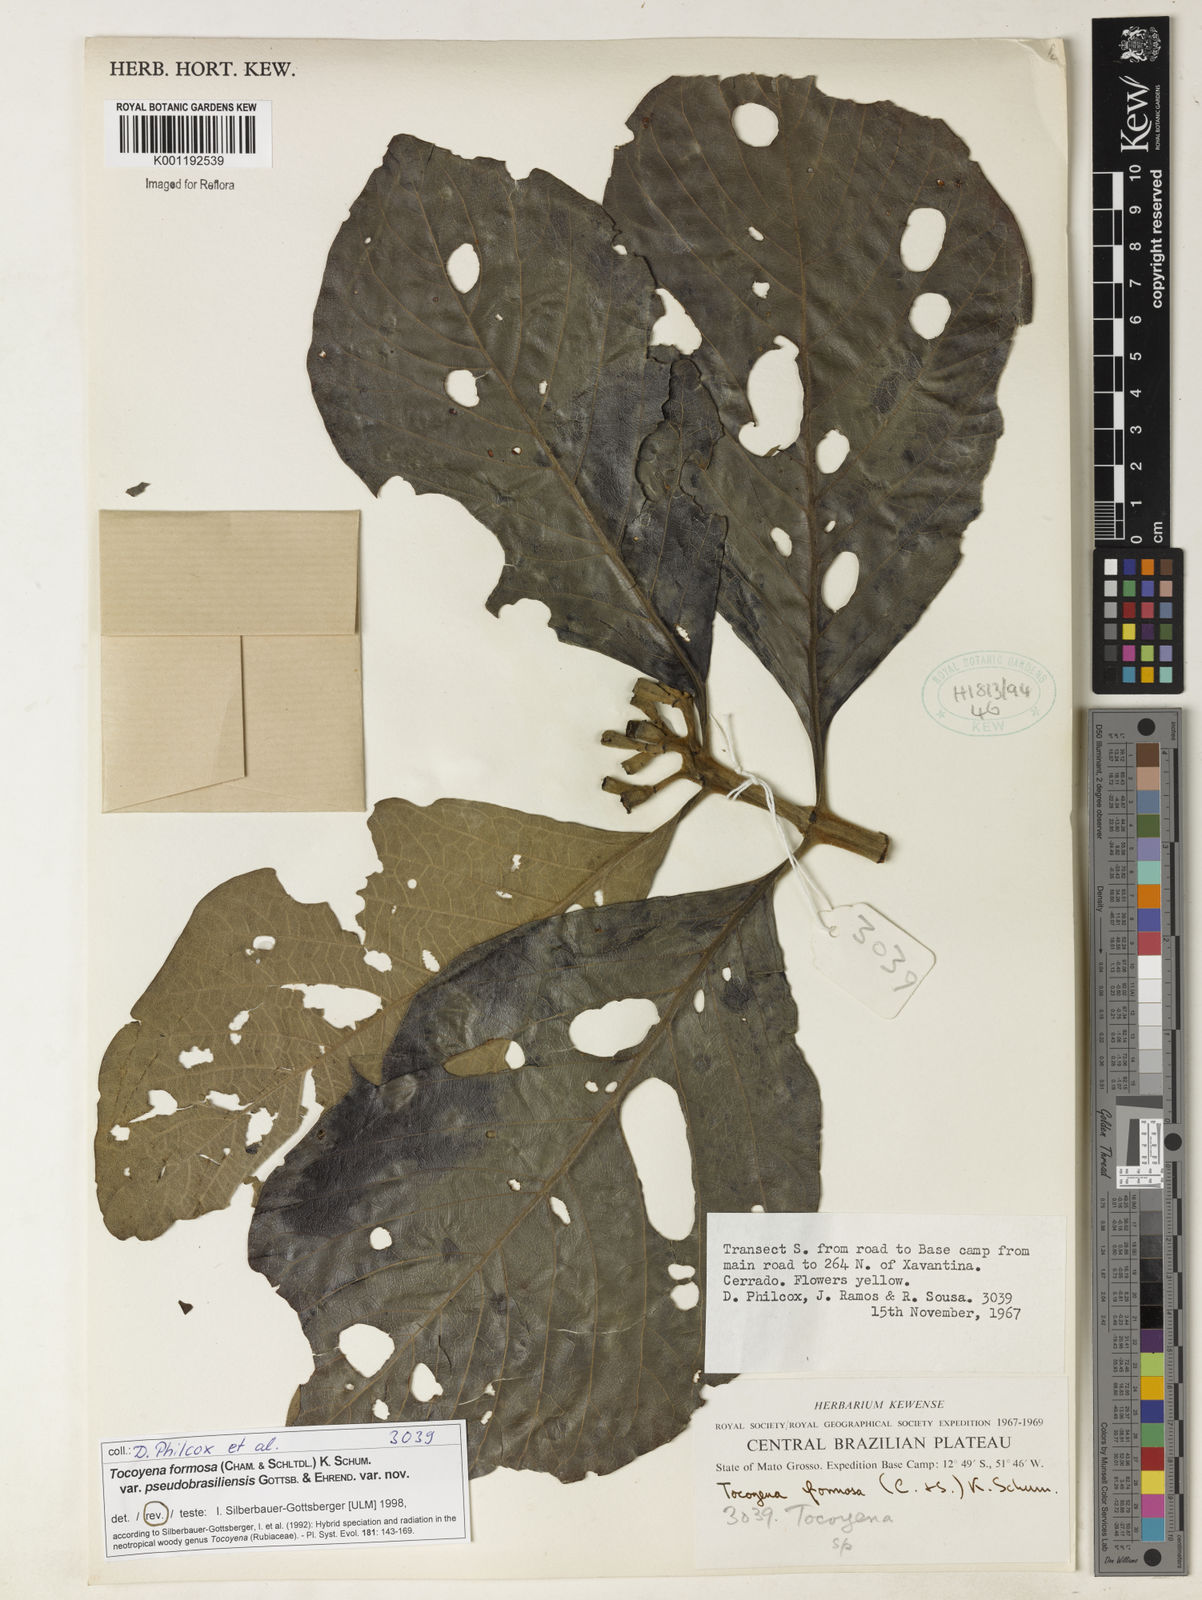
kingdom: Plantae
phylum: Tracheophyta
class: Magnoliopsida
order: Gentianales
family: Rubiaceae
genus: Tocoyena
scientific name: Tocoyena formosa
